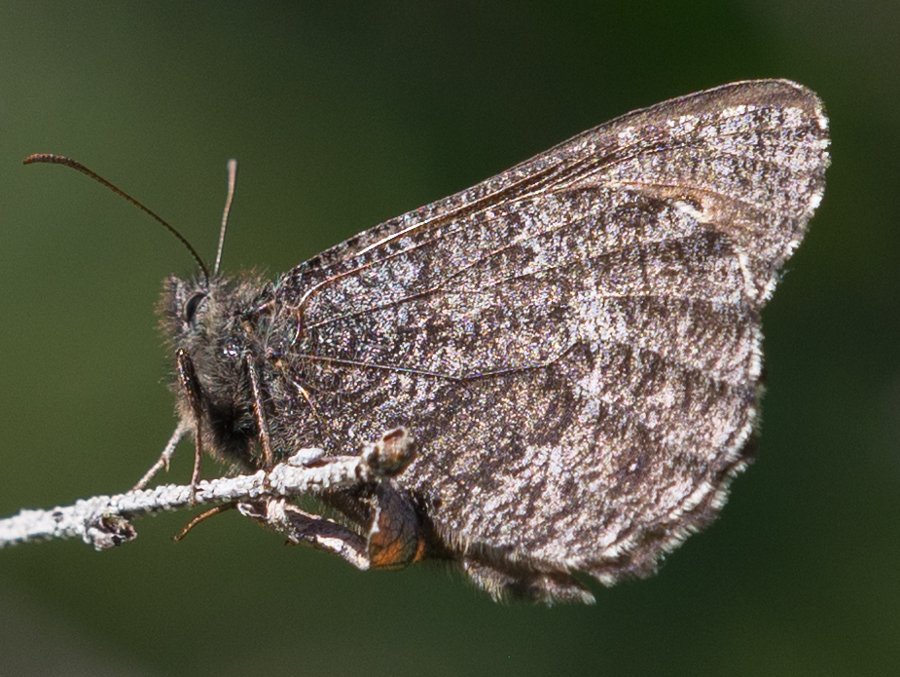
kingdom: Animalia
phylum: Arthropoda
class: Insecta
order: Lepidoptera
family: Nymphalidae
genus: Oeneis
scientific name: Oeneis jutta
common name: Jutta Arctic
